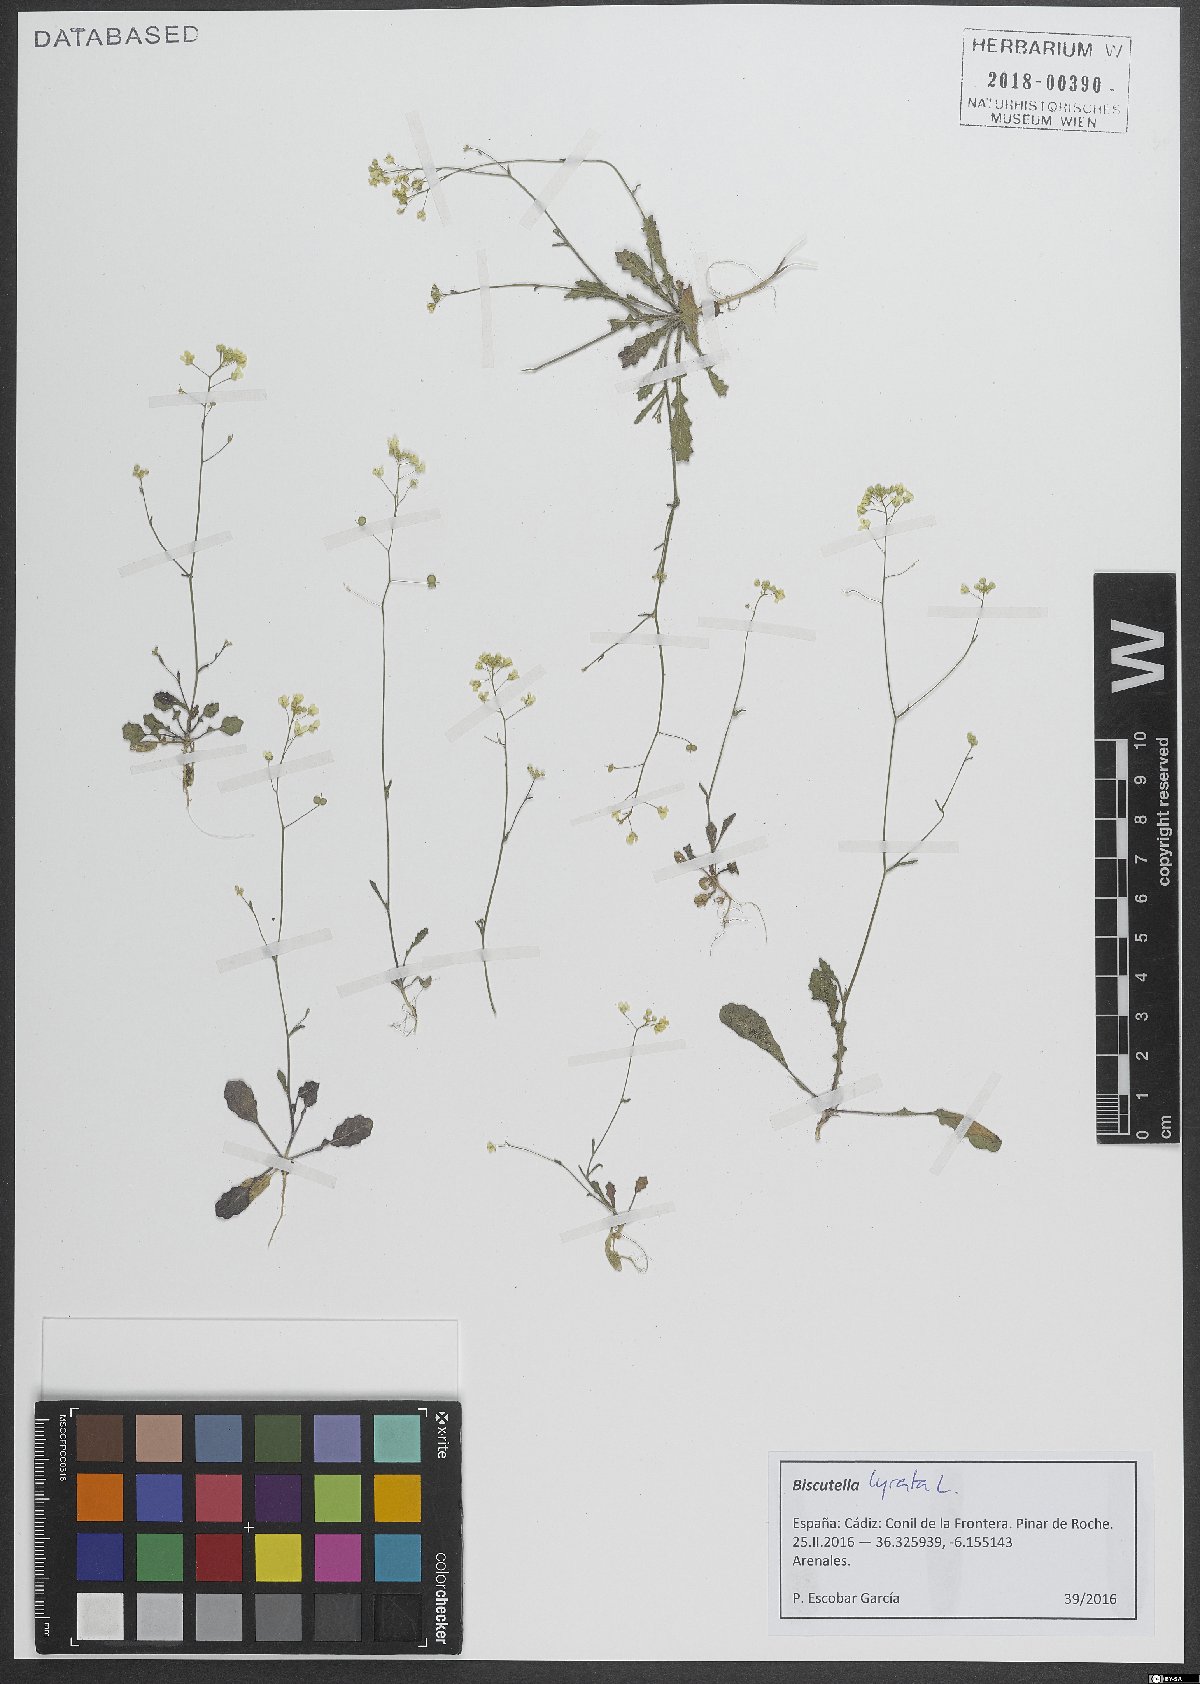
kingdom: Plantae
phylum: Tracheophyta
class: Magnoliopsida
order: Brassicales
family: Brassicaceae
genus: Biscutella
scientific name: Biscutella lyrata
